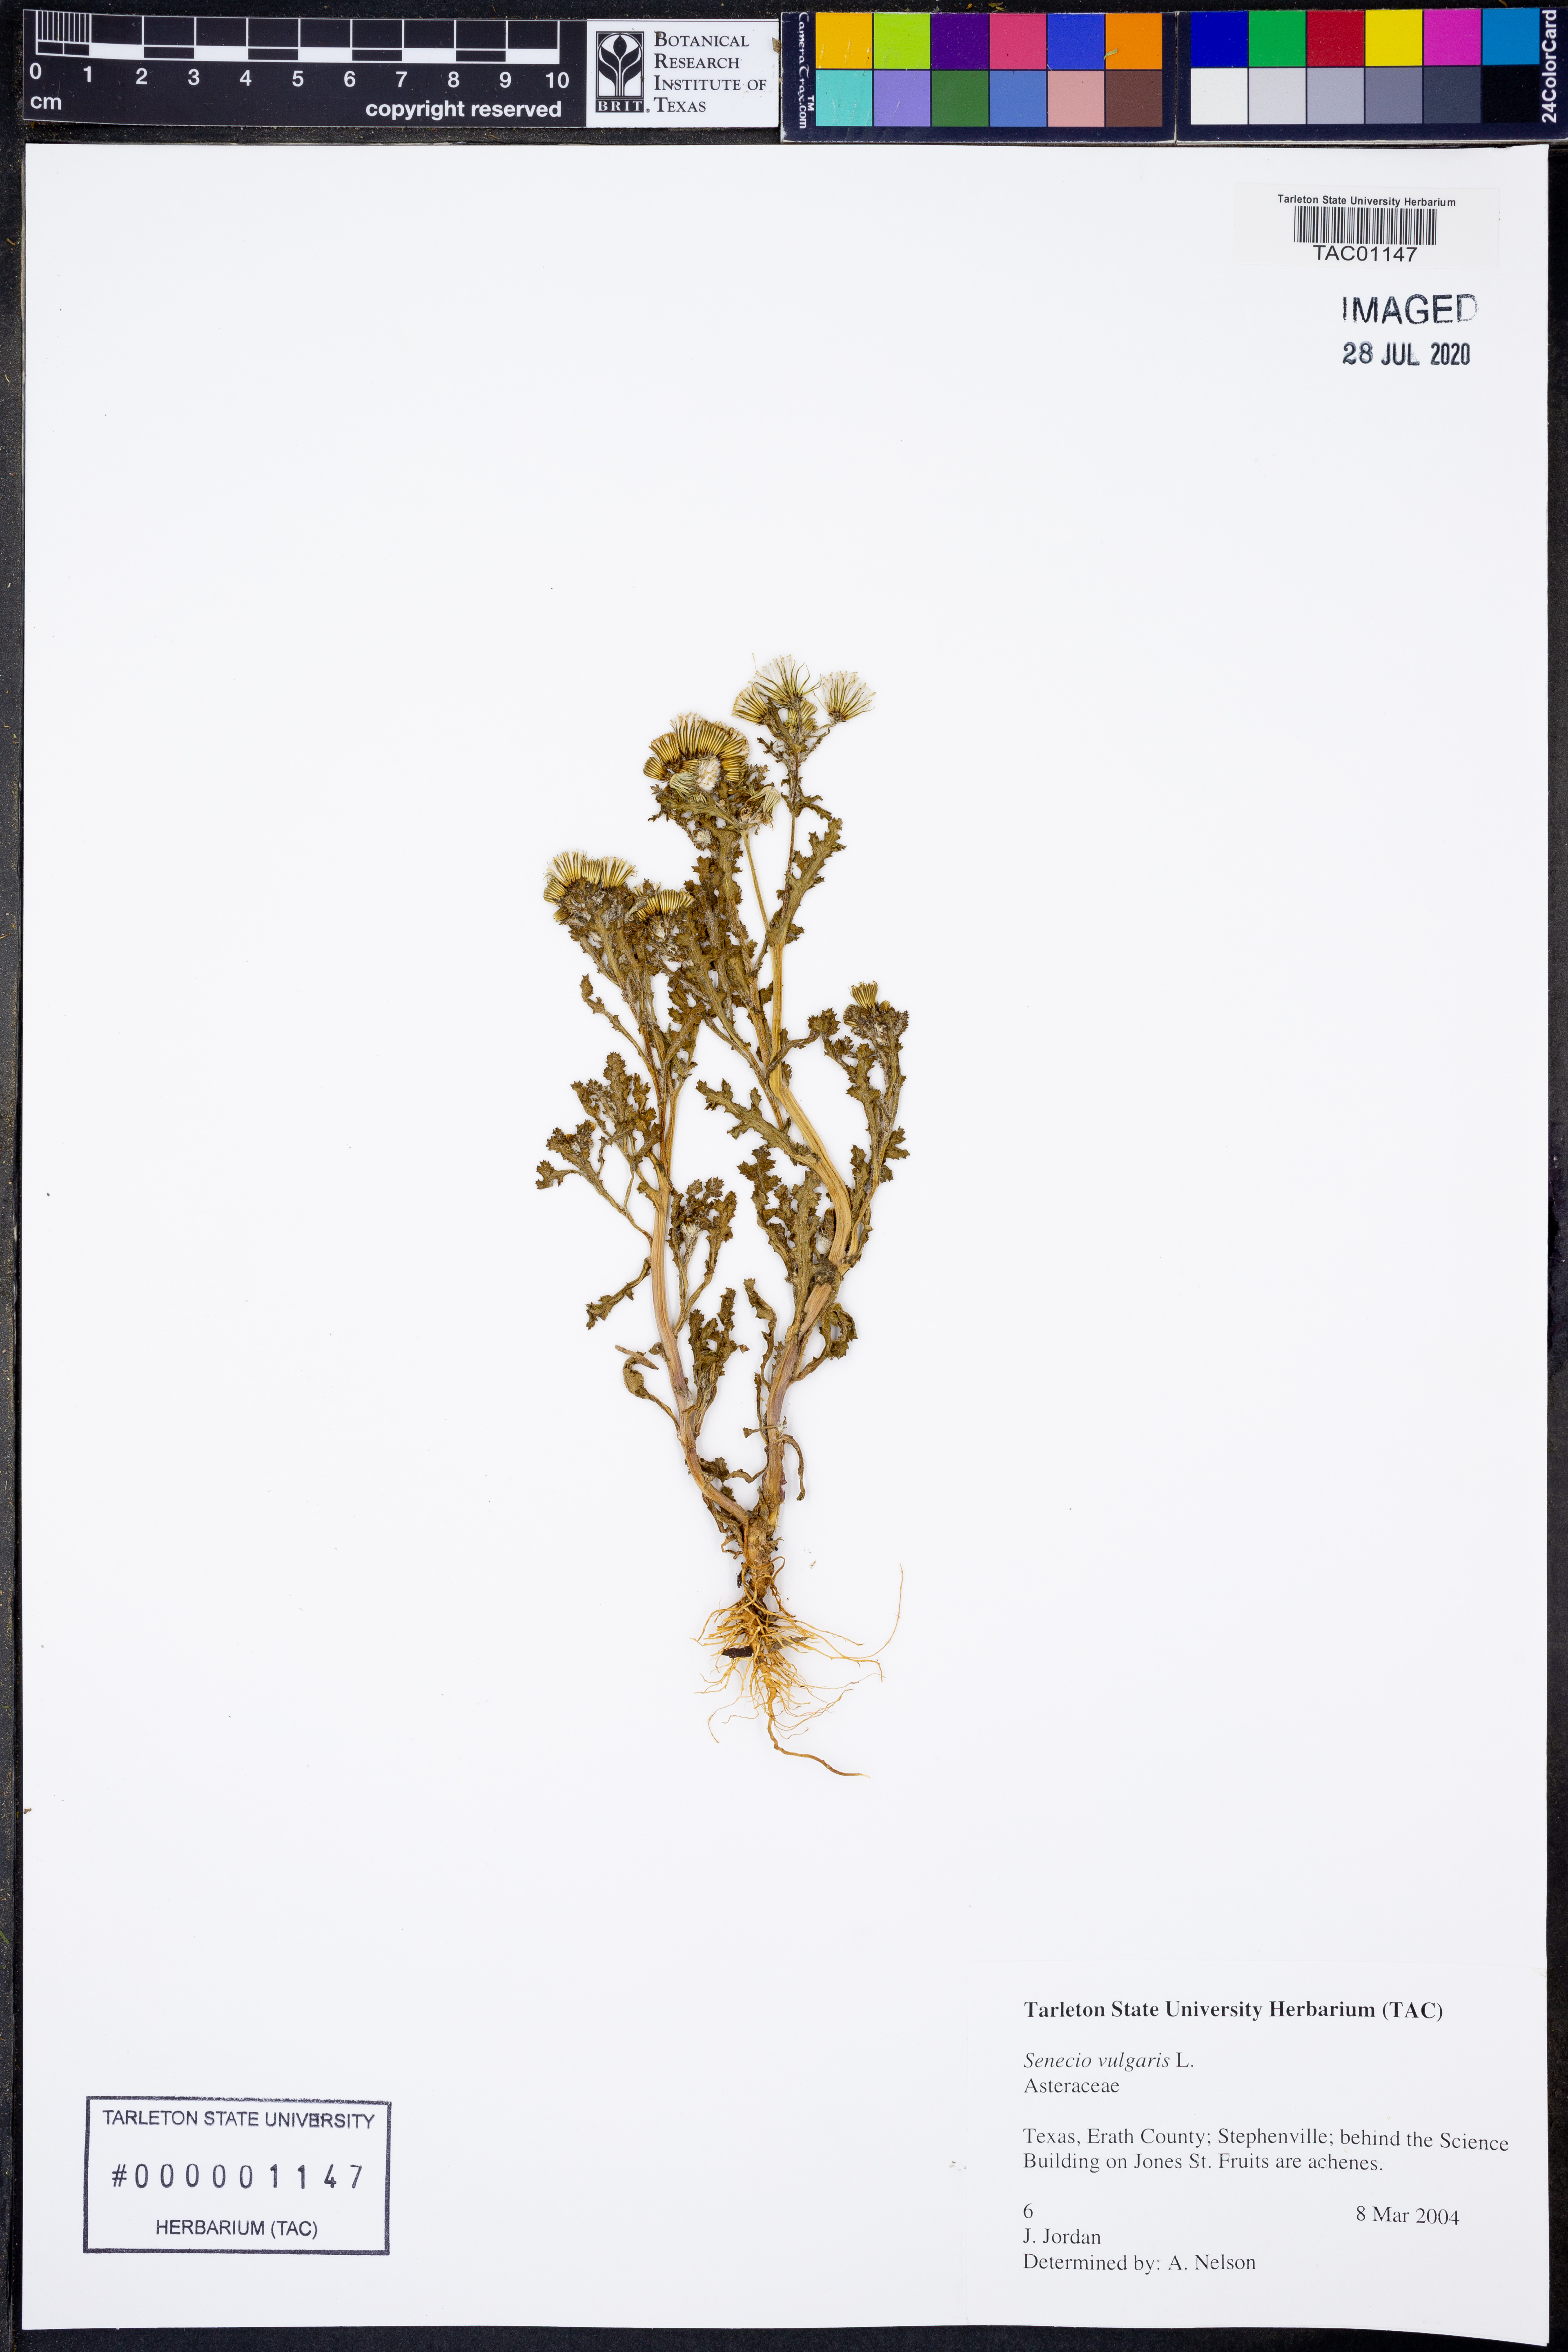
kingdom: Plantae
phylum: Tracheophyta
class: Magnoliopsida
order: Asterales
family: Asteraceae
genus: Senecio
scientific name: Senecio vulgaris
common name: Old-man-in-the-spring
